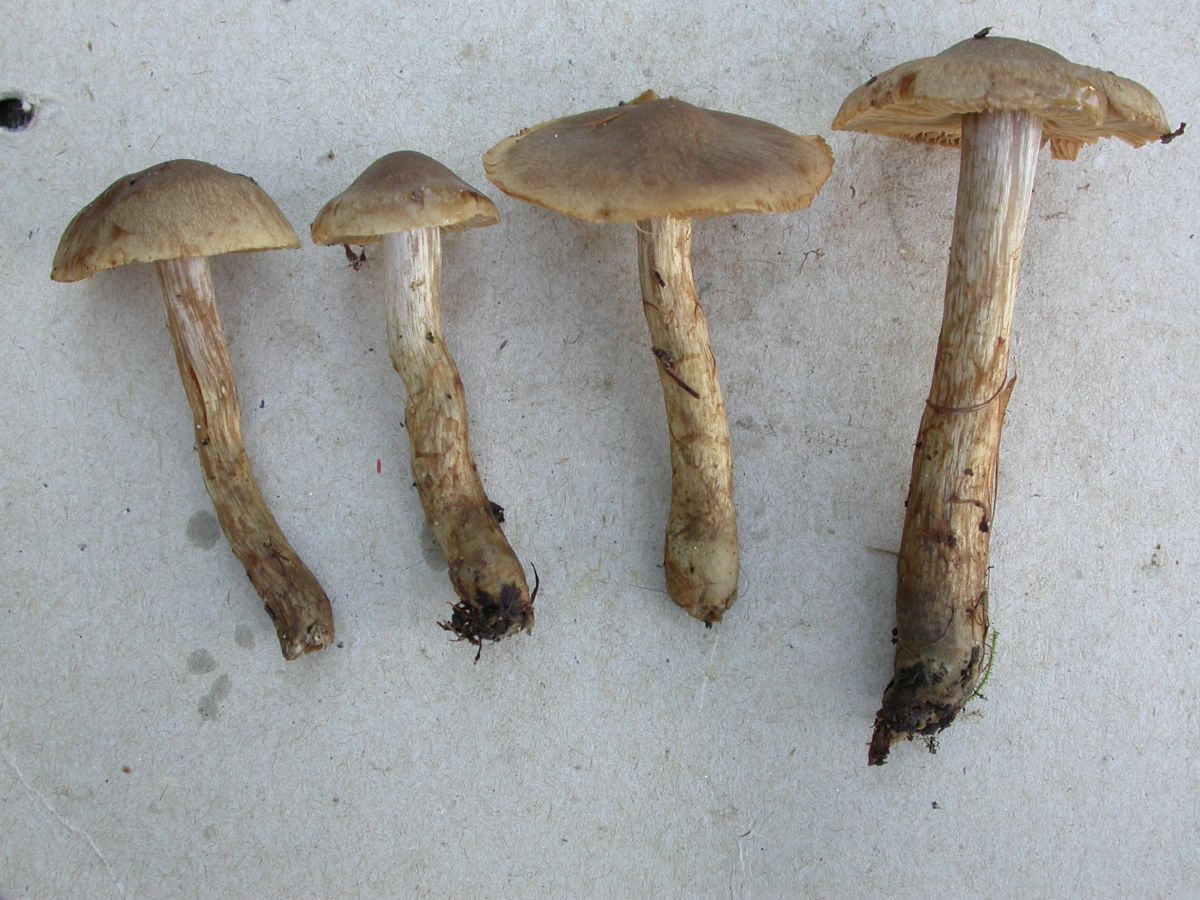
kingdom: Fungi
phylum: Basidiomycota
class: Agaricomycetes
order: Agaricales
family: Cortinariaceae
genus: Cortinarius
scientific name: Cortinarius raphanoides
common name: ræddike-slørhat
